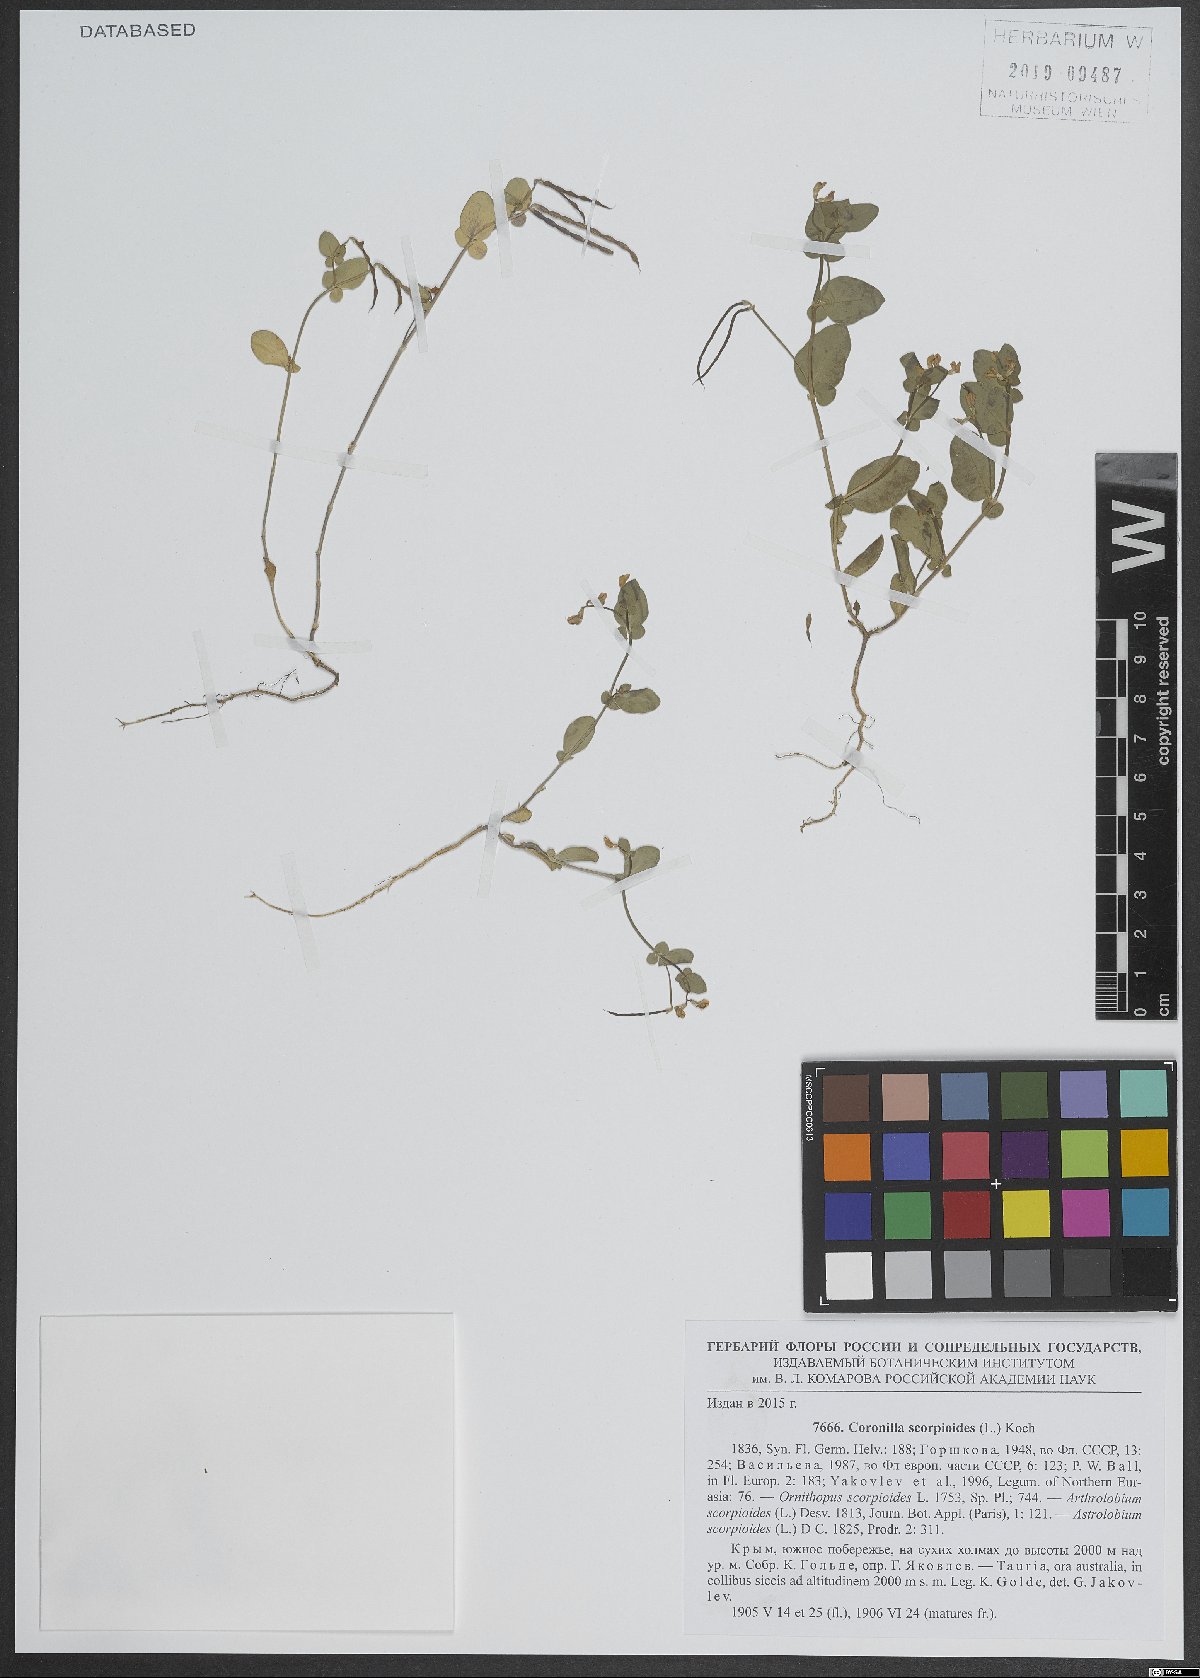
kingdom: Plantae
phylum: Tracheophyta
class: Magnoliopsida
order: Fabales
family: Fabaceae
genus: Coronilla
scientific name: Coronilla scorpioides
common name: Annual scorpion-vetch
